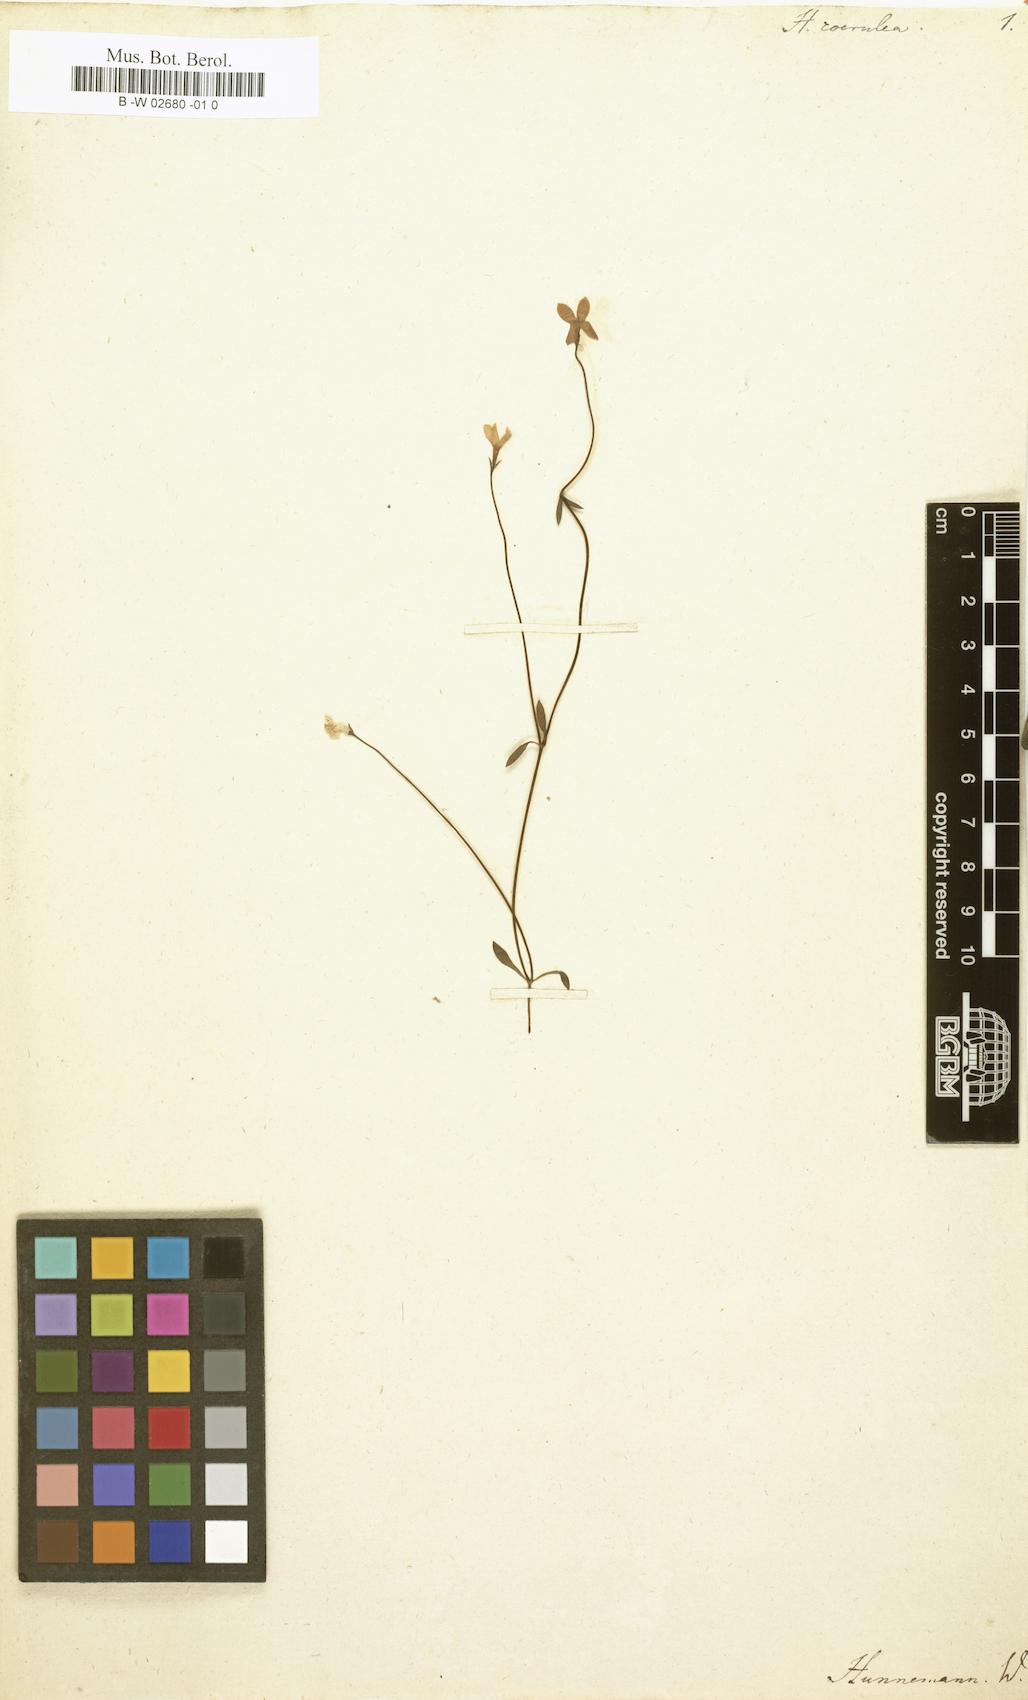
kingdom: Plantae
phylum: Tracheophyta
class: Magnoliopsida
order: Gentianales
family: Rubiaceae
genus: Houstonia
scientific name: Houstonia caerulea
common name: Bluets
